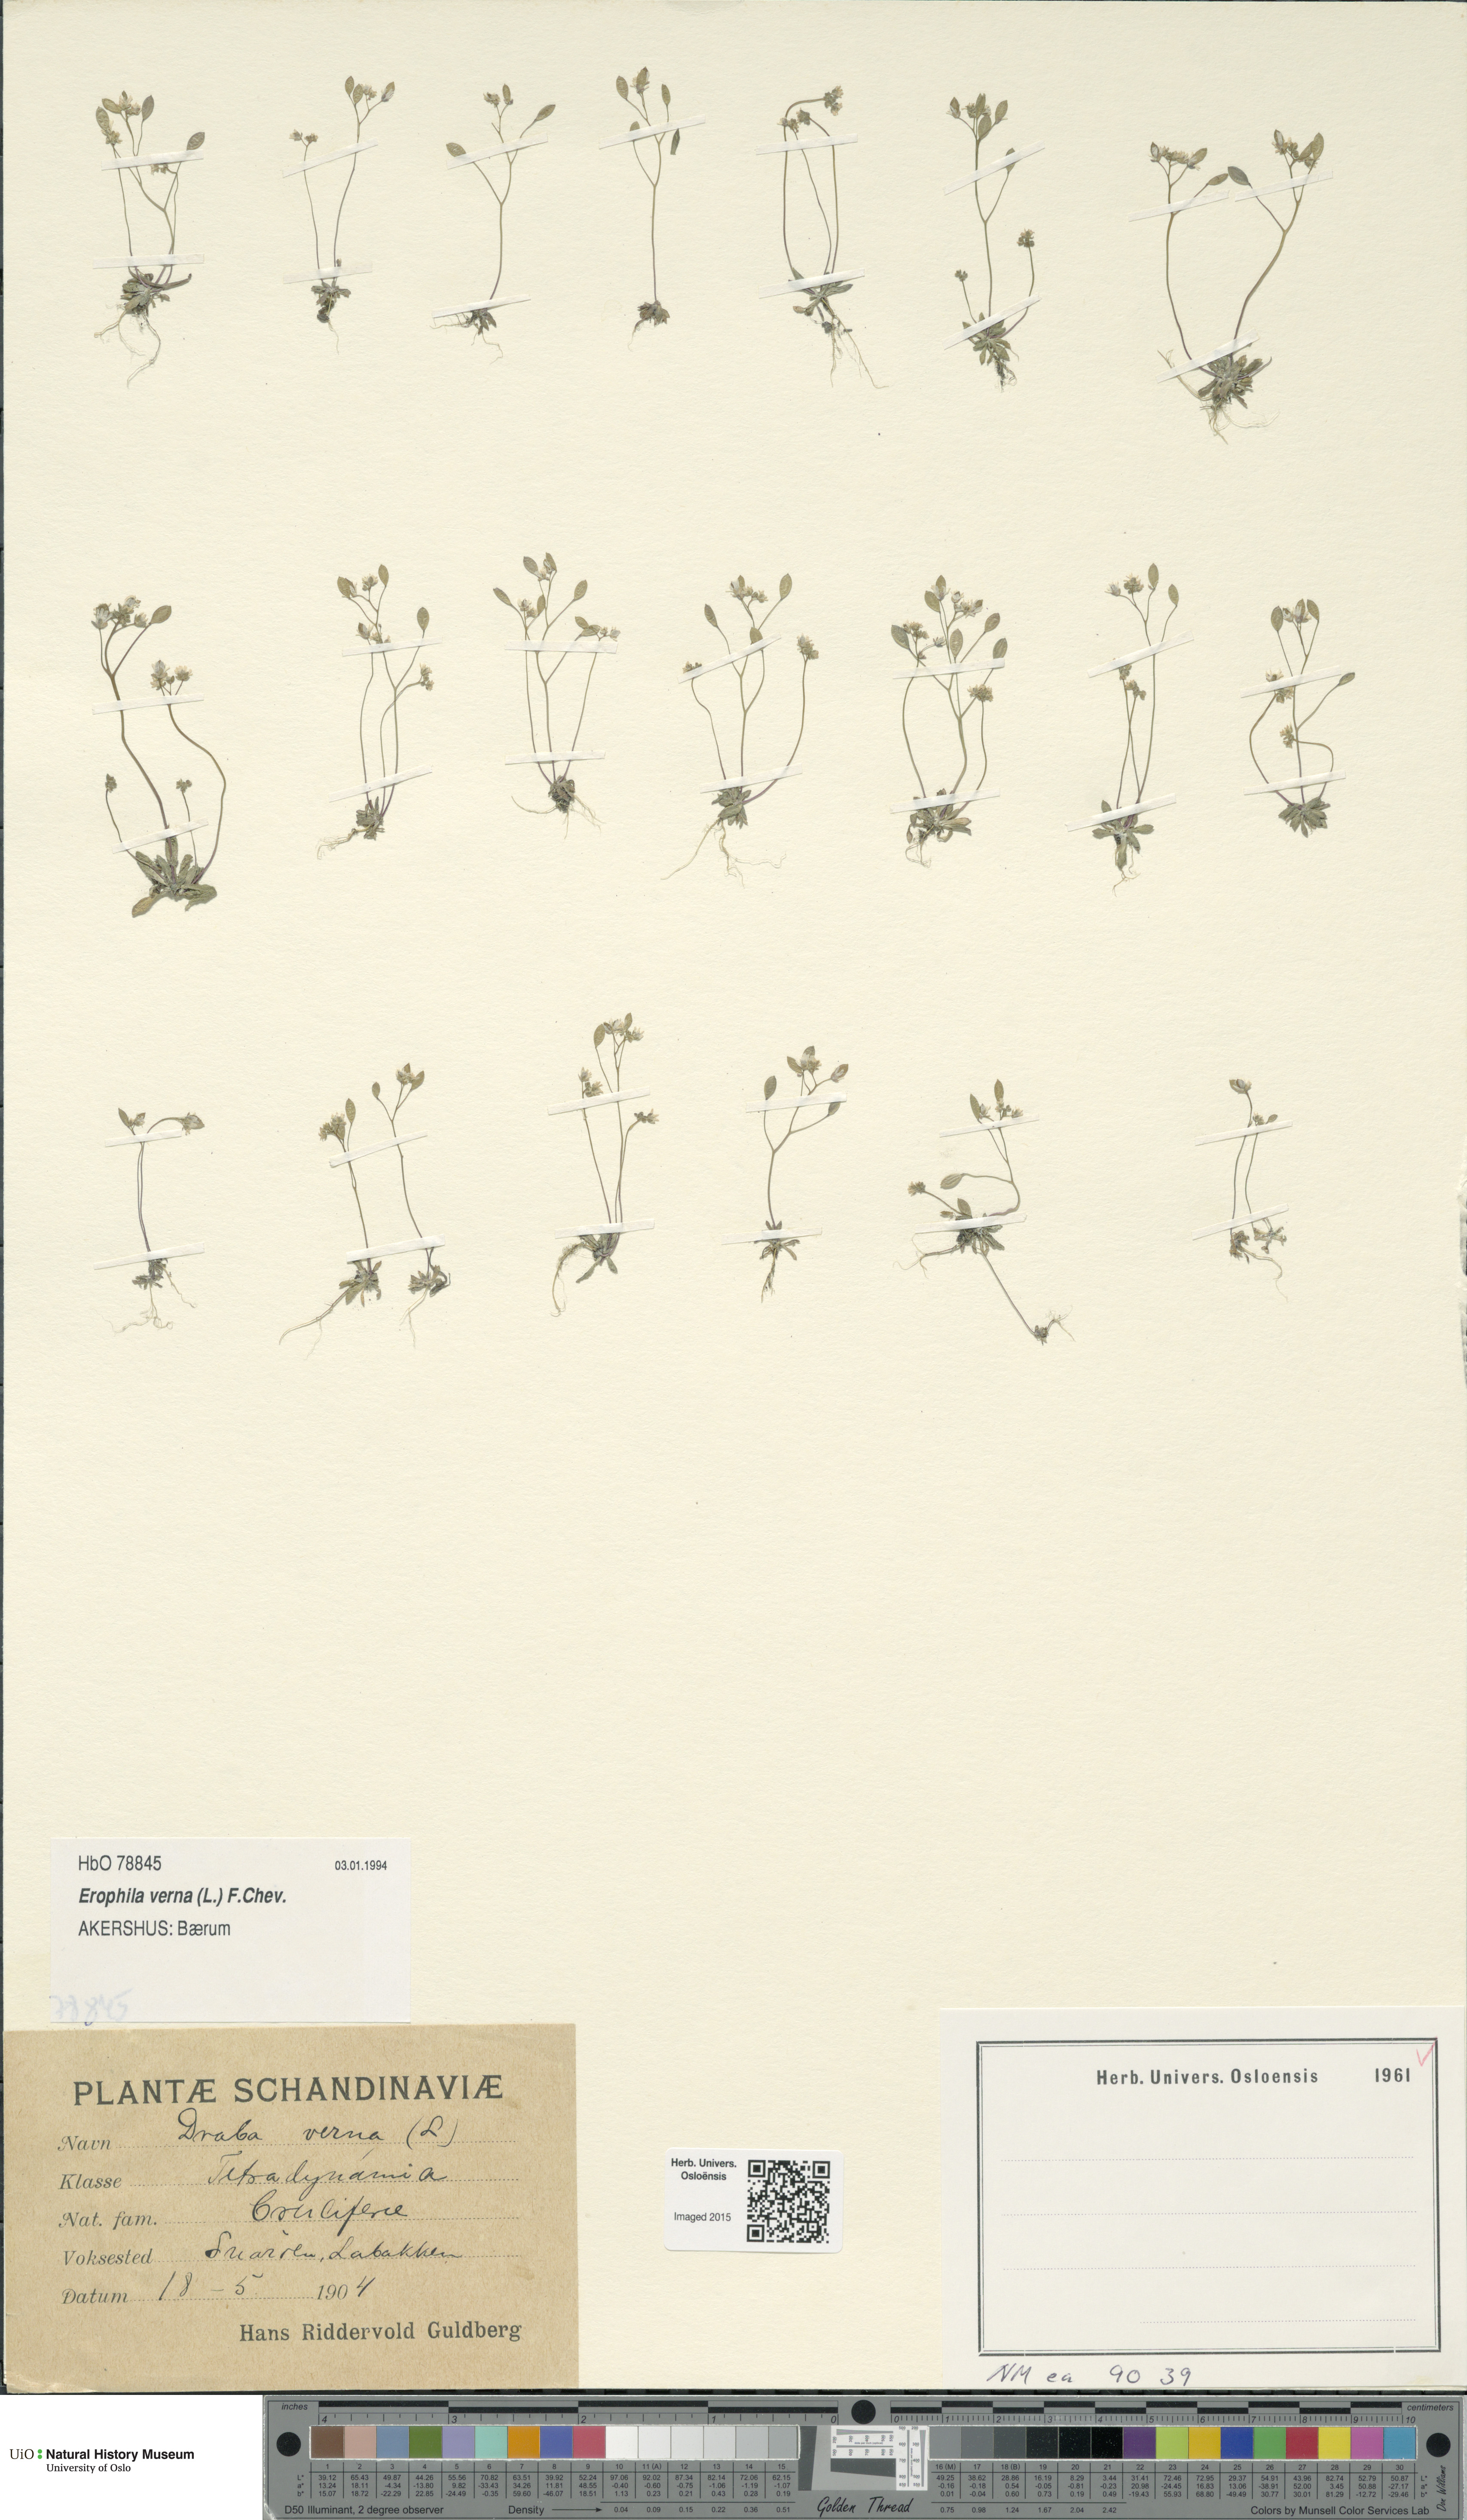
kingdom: Plantae
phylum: Tracheophyta
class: Magnoliopsida
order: Brassicales
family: Brassicaceae
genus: Draba
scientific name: Draba verna
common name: Spring draba
